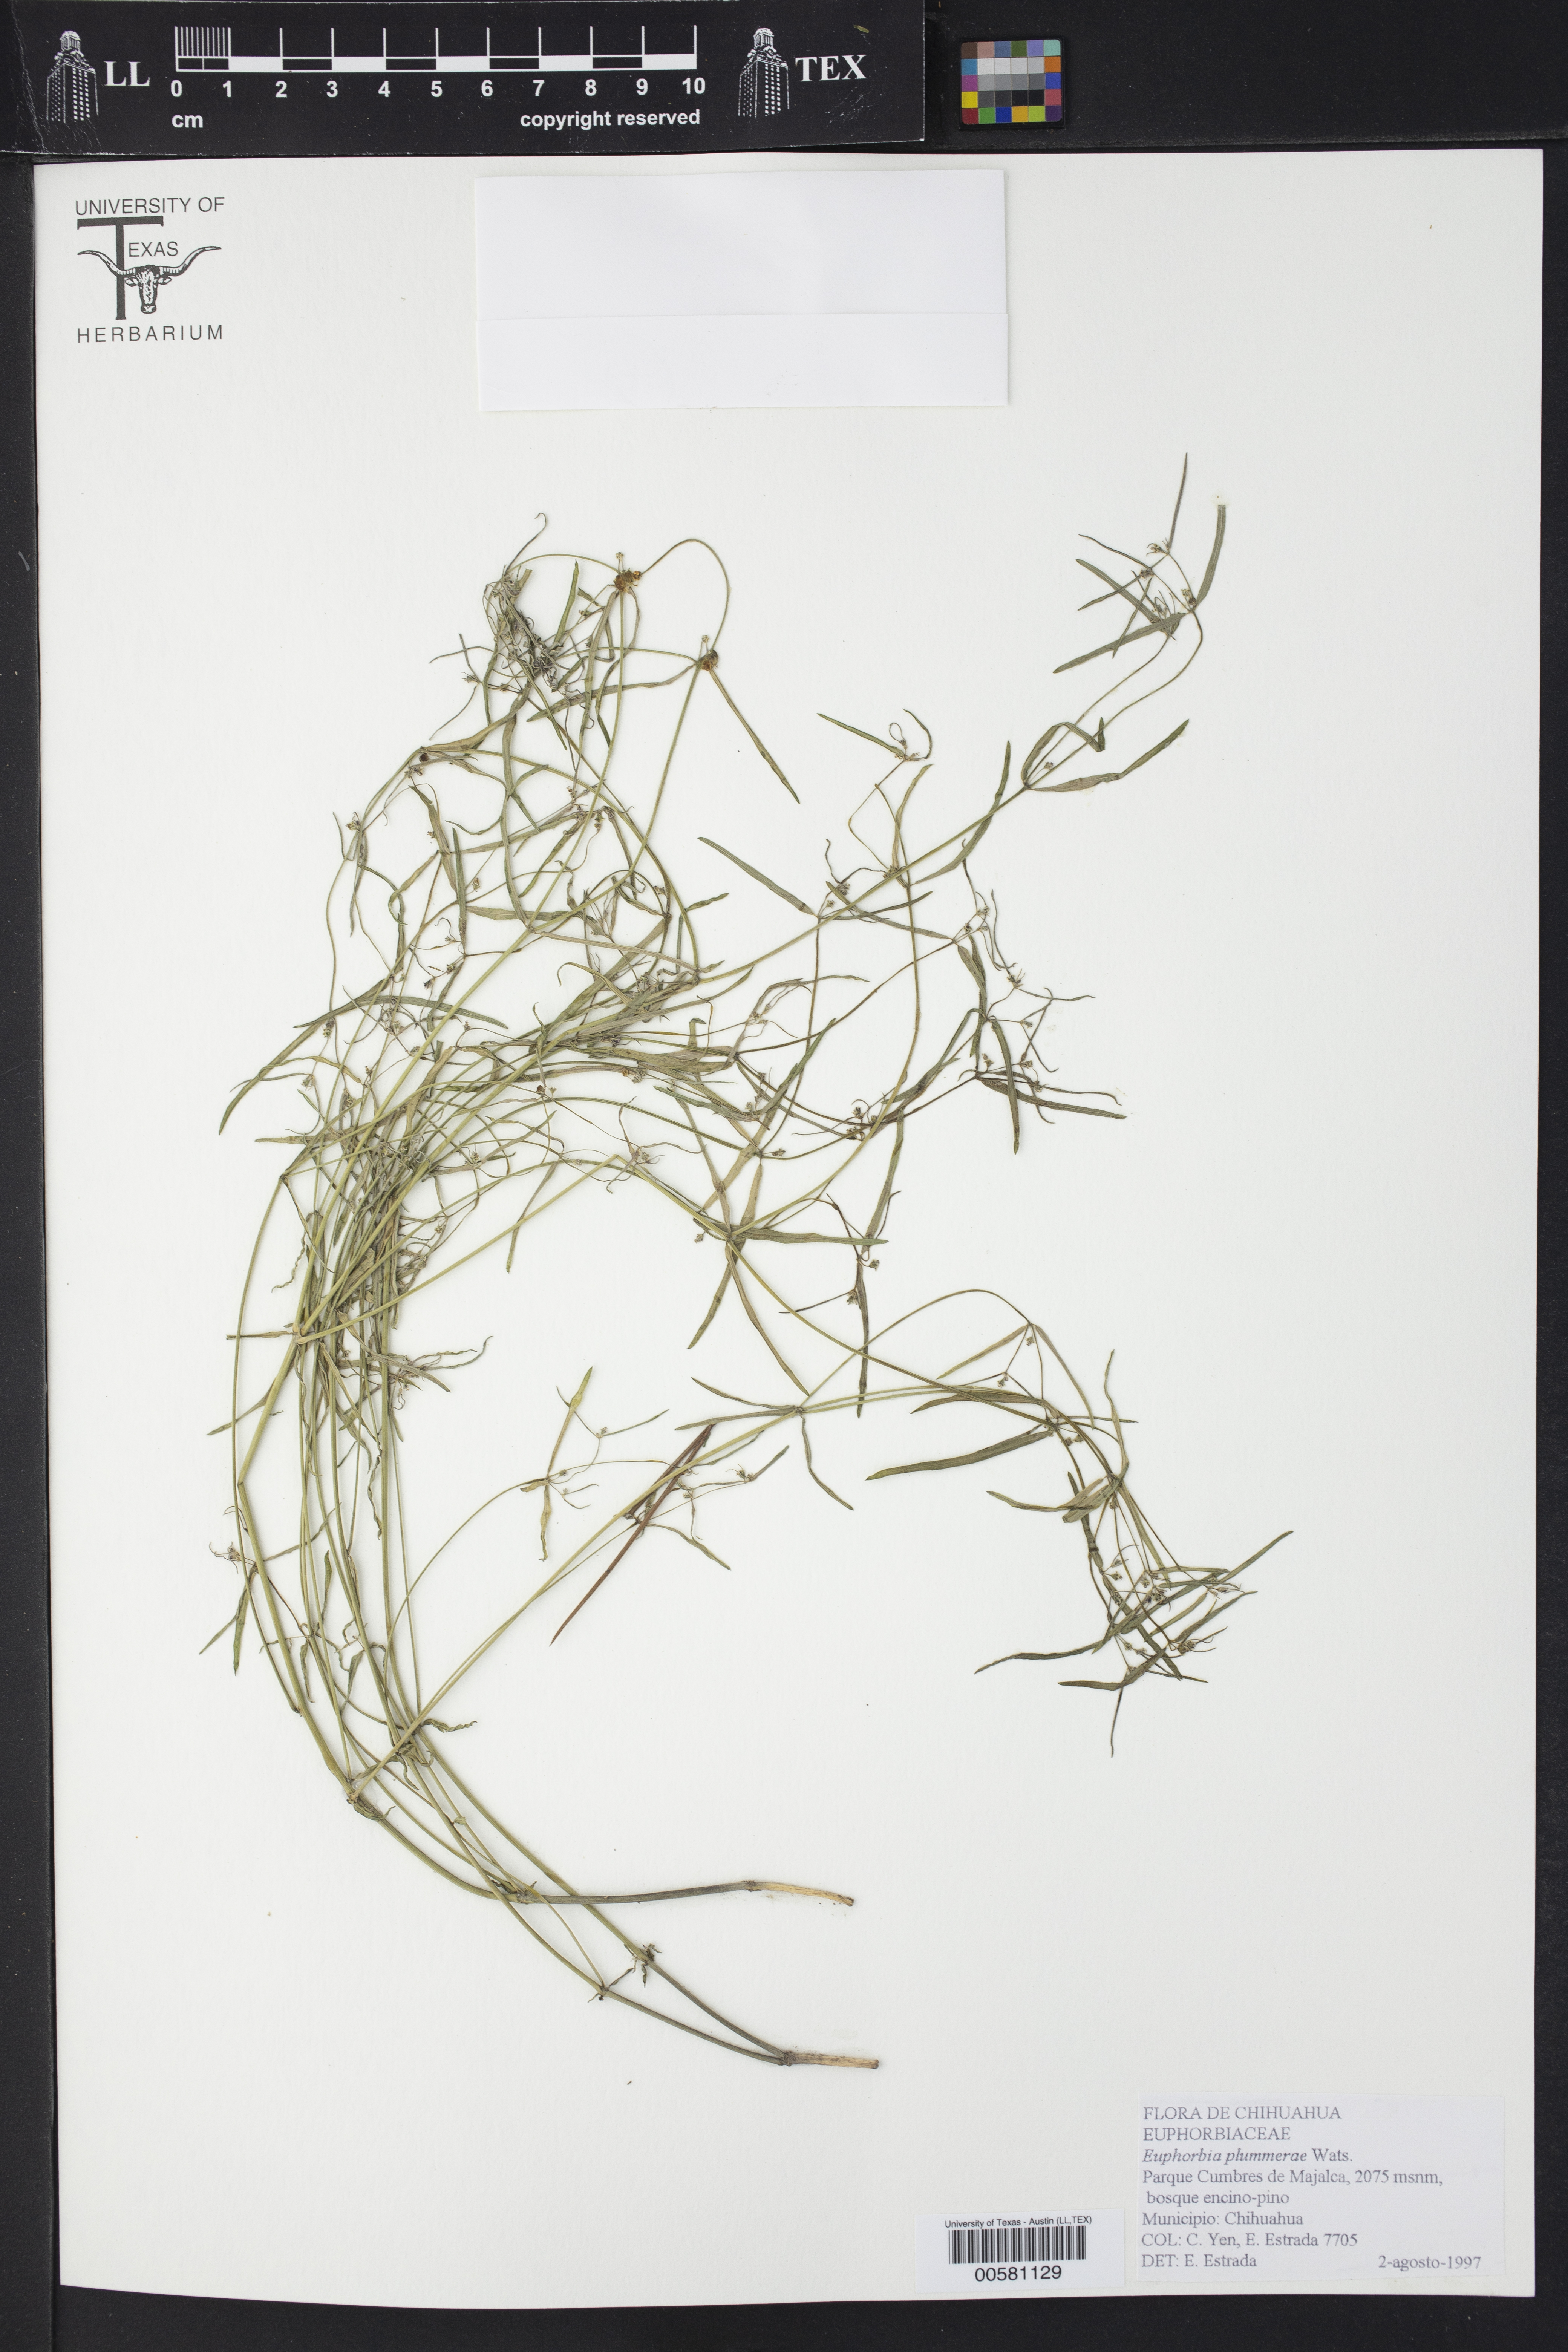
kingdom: Plantae
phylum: Tracheophyta
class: Magnoliopsida
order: Malpighiales
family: Euphorbiaceae
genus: Euphorbia
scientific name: Euphorbia macropus
